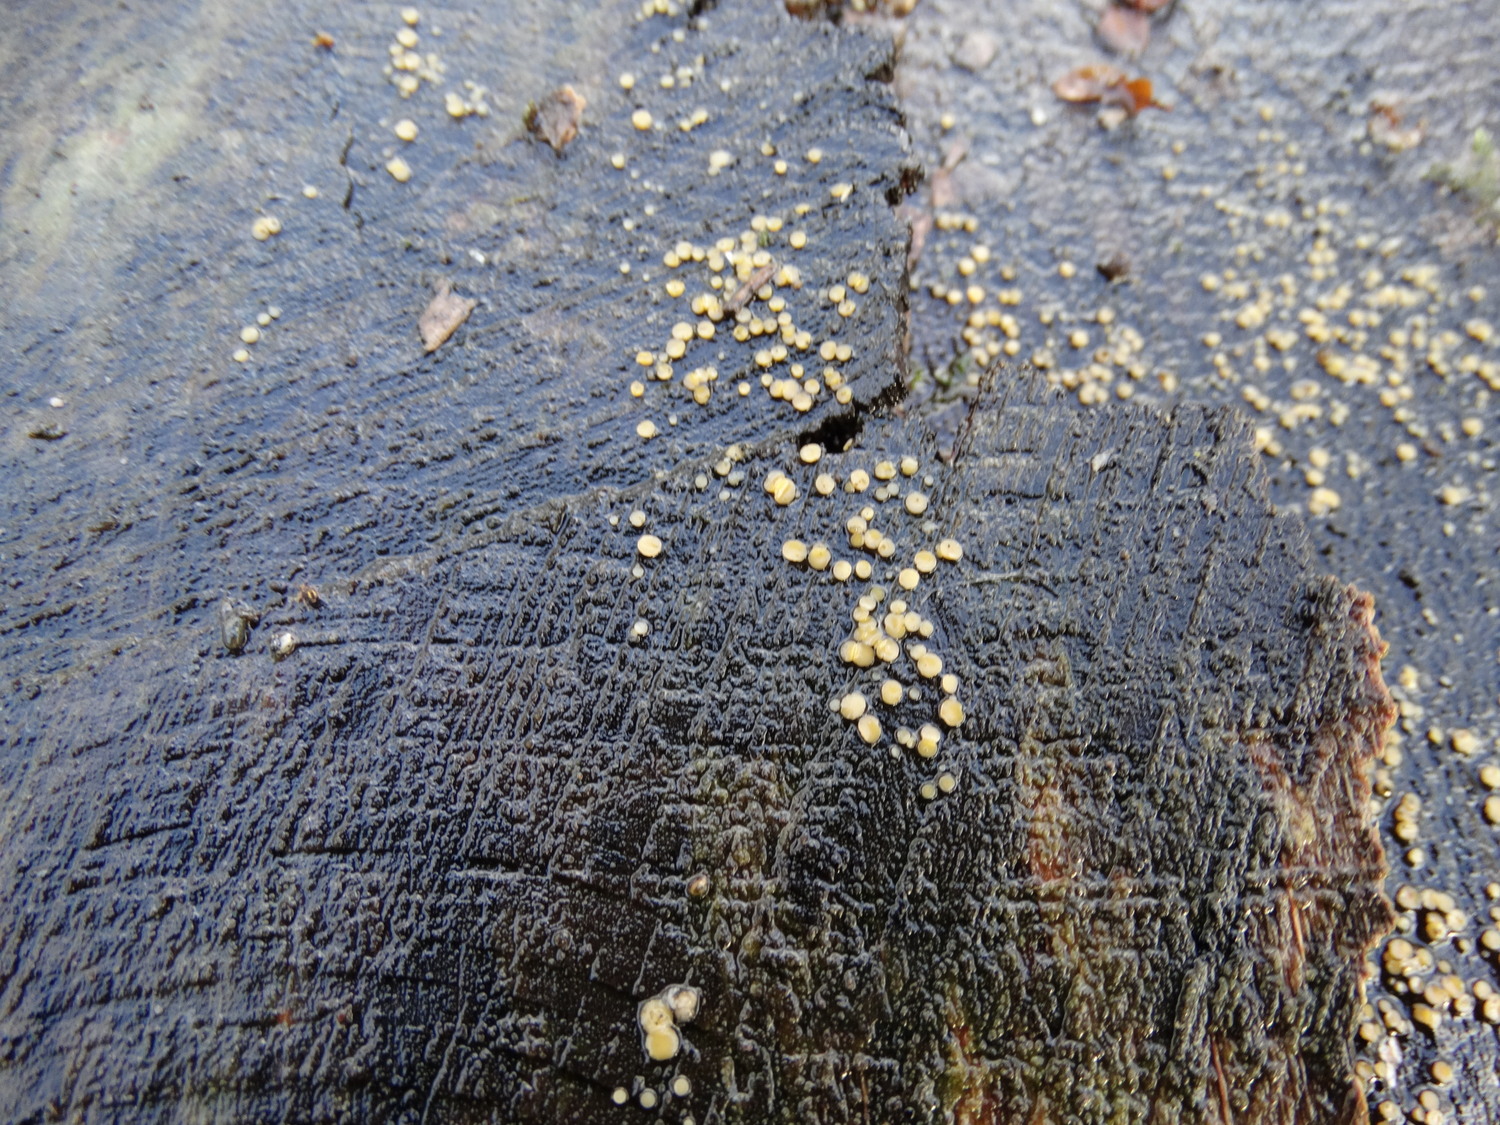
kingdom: Fungi
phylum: Ascomycota
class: Leotiomycetes
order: Helotiales
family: Helotiaceae
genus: Bisporella
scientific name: Bisporella
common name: snitskive
